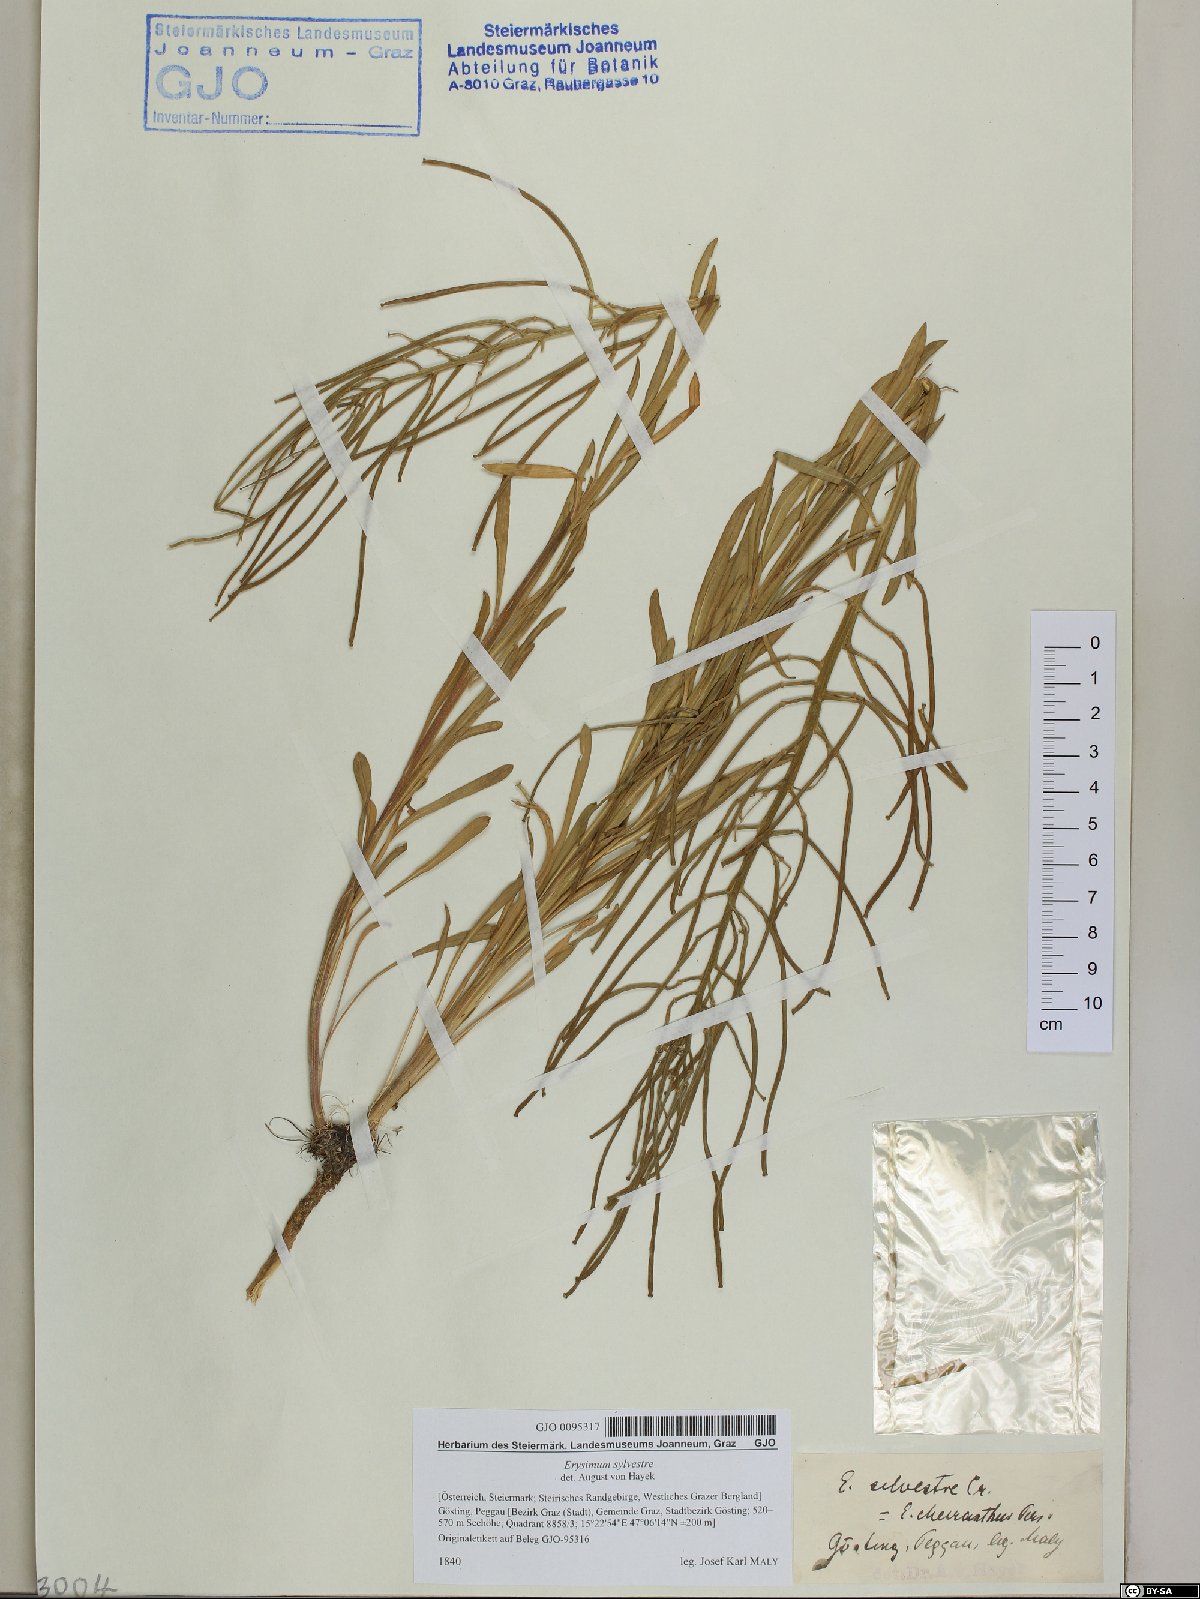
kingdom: Plantae
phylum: Tracheophyta
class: Magnoliopsida
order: Brassicales
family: Brassicaceae
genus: Erysimum
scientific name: Erysimum sylvestre
